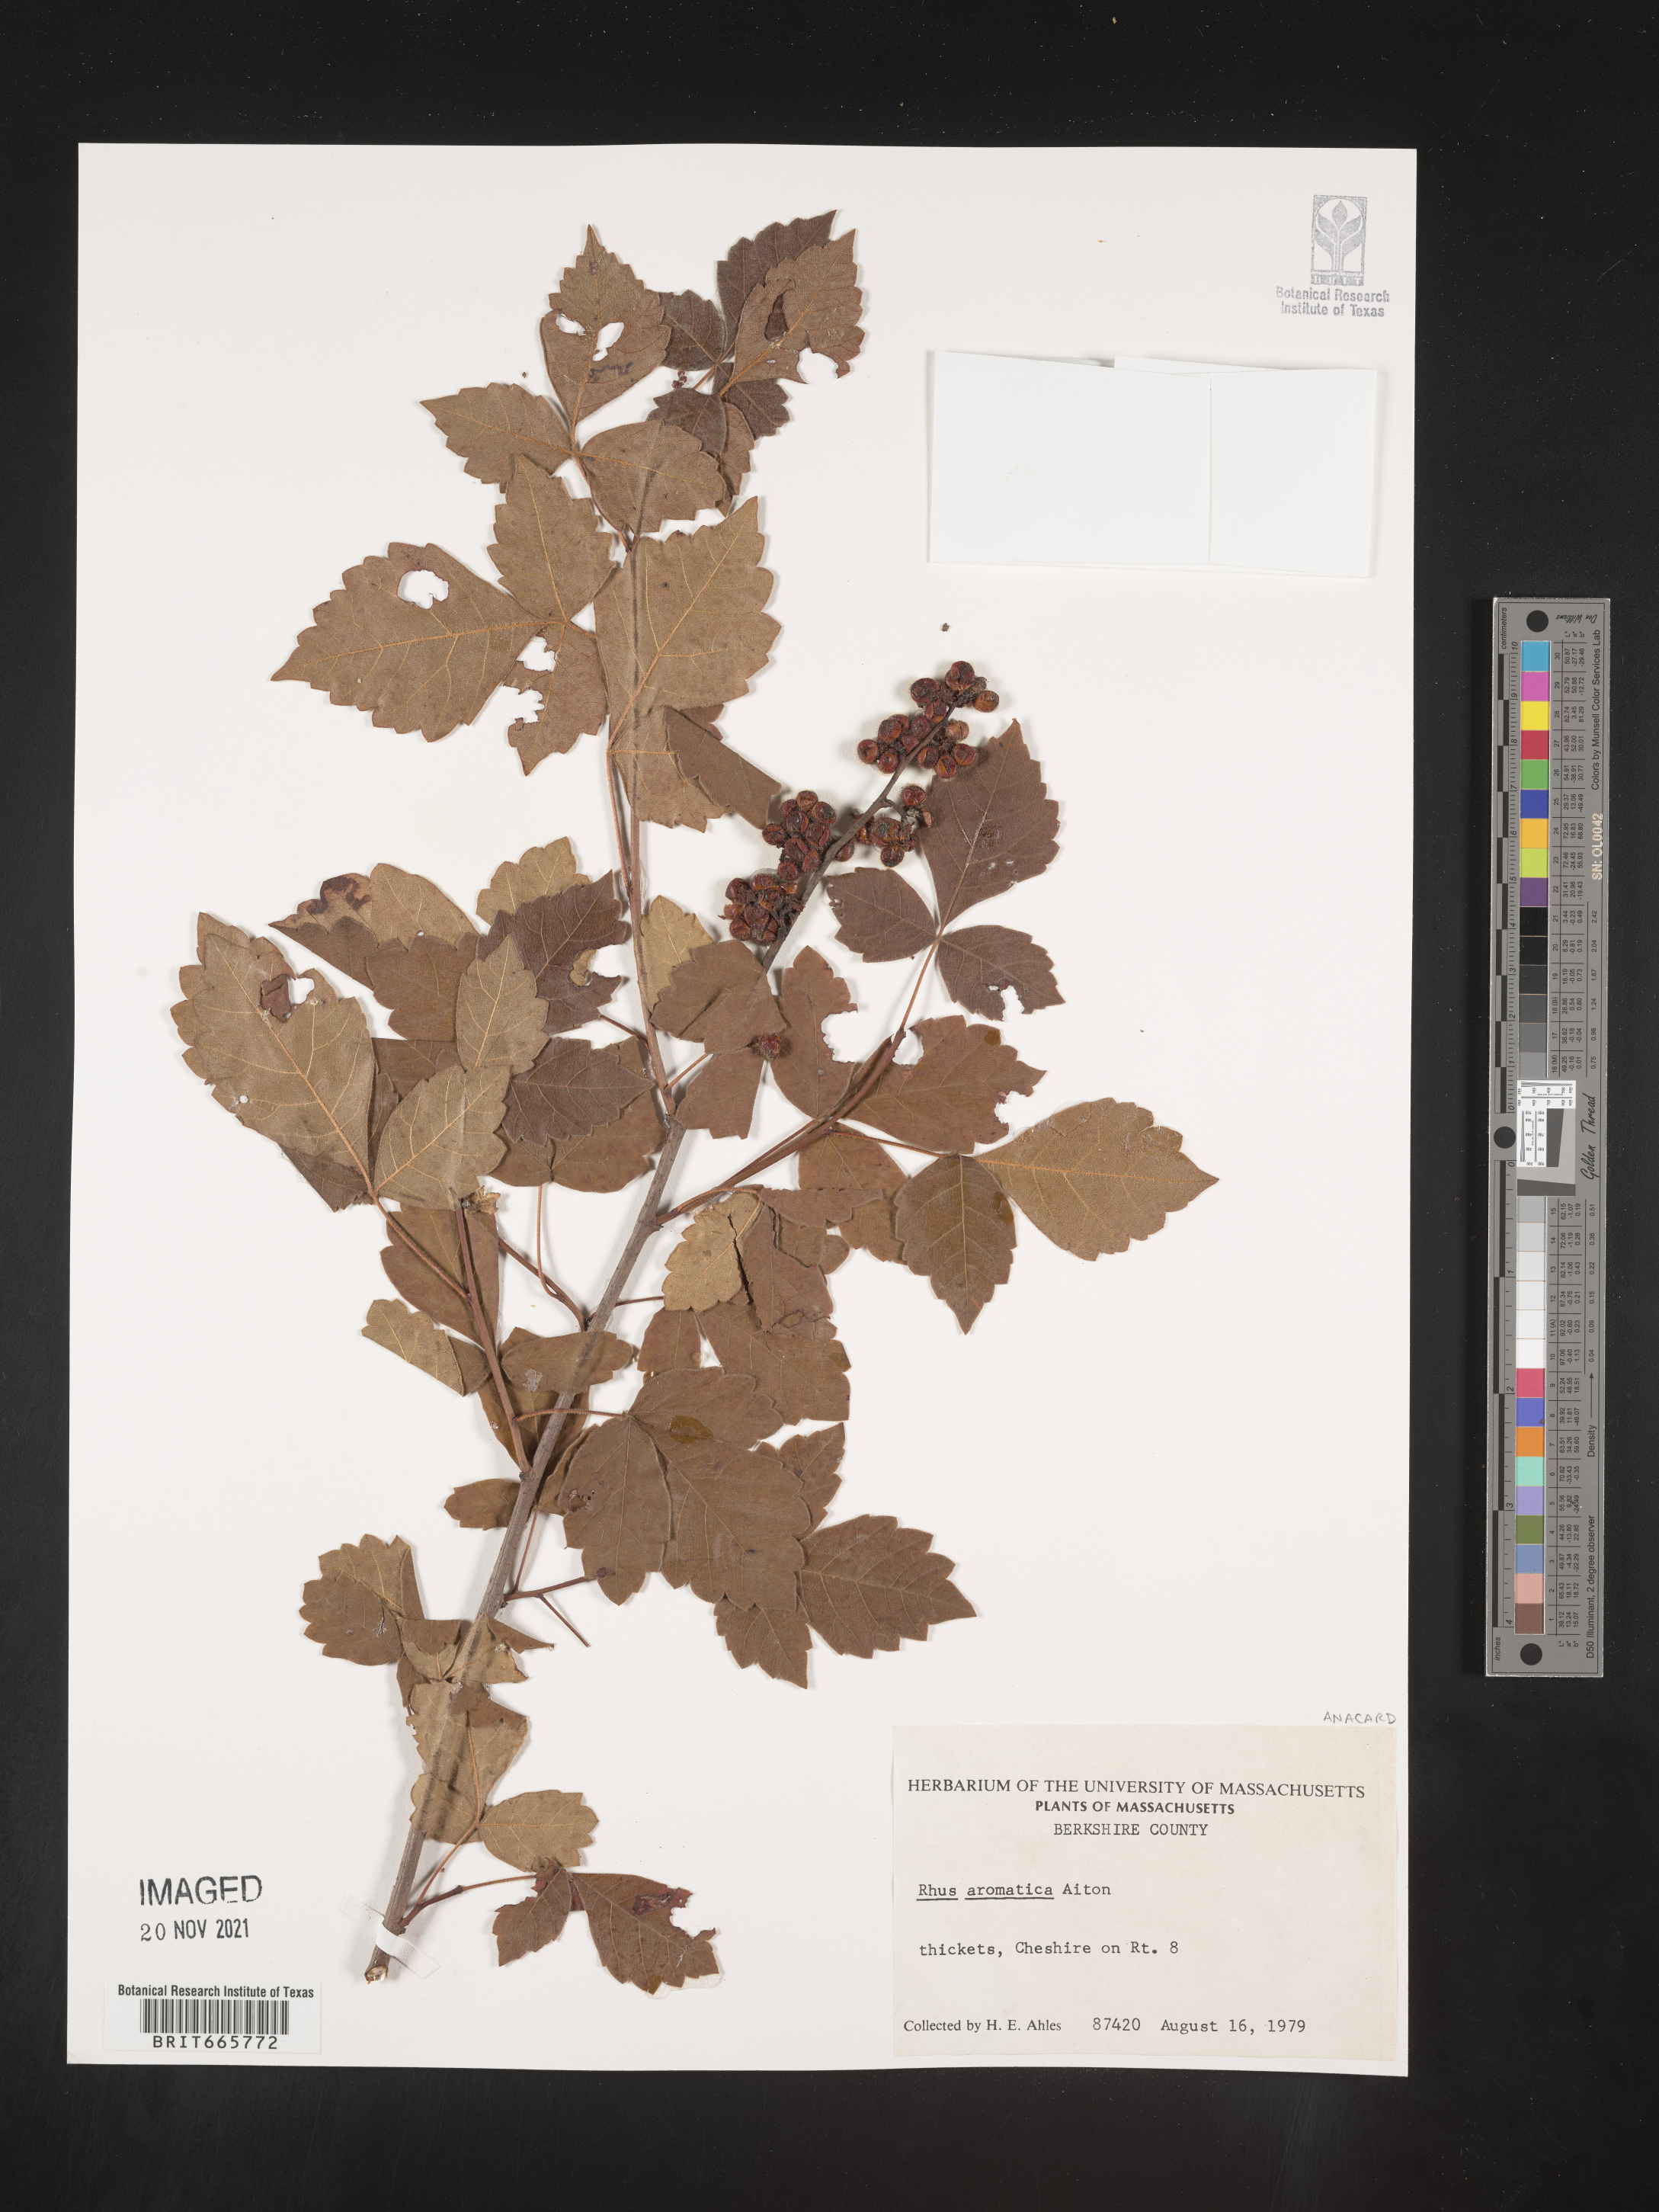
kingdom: Plantae
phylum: Tracheophyta
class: Magnoliopsida
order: Sapindales
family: Anacardiaceae
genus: Rhus
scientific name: Rhus aromatica
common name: Aromatic sumac
